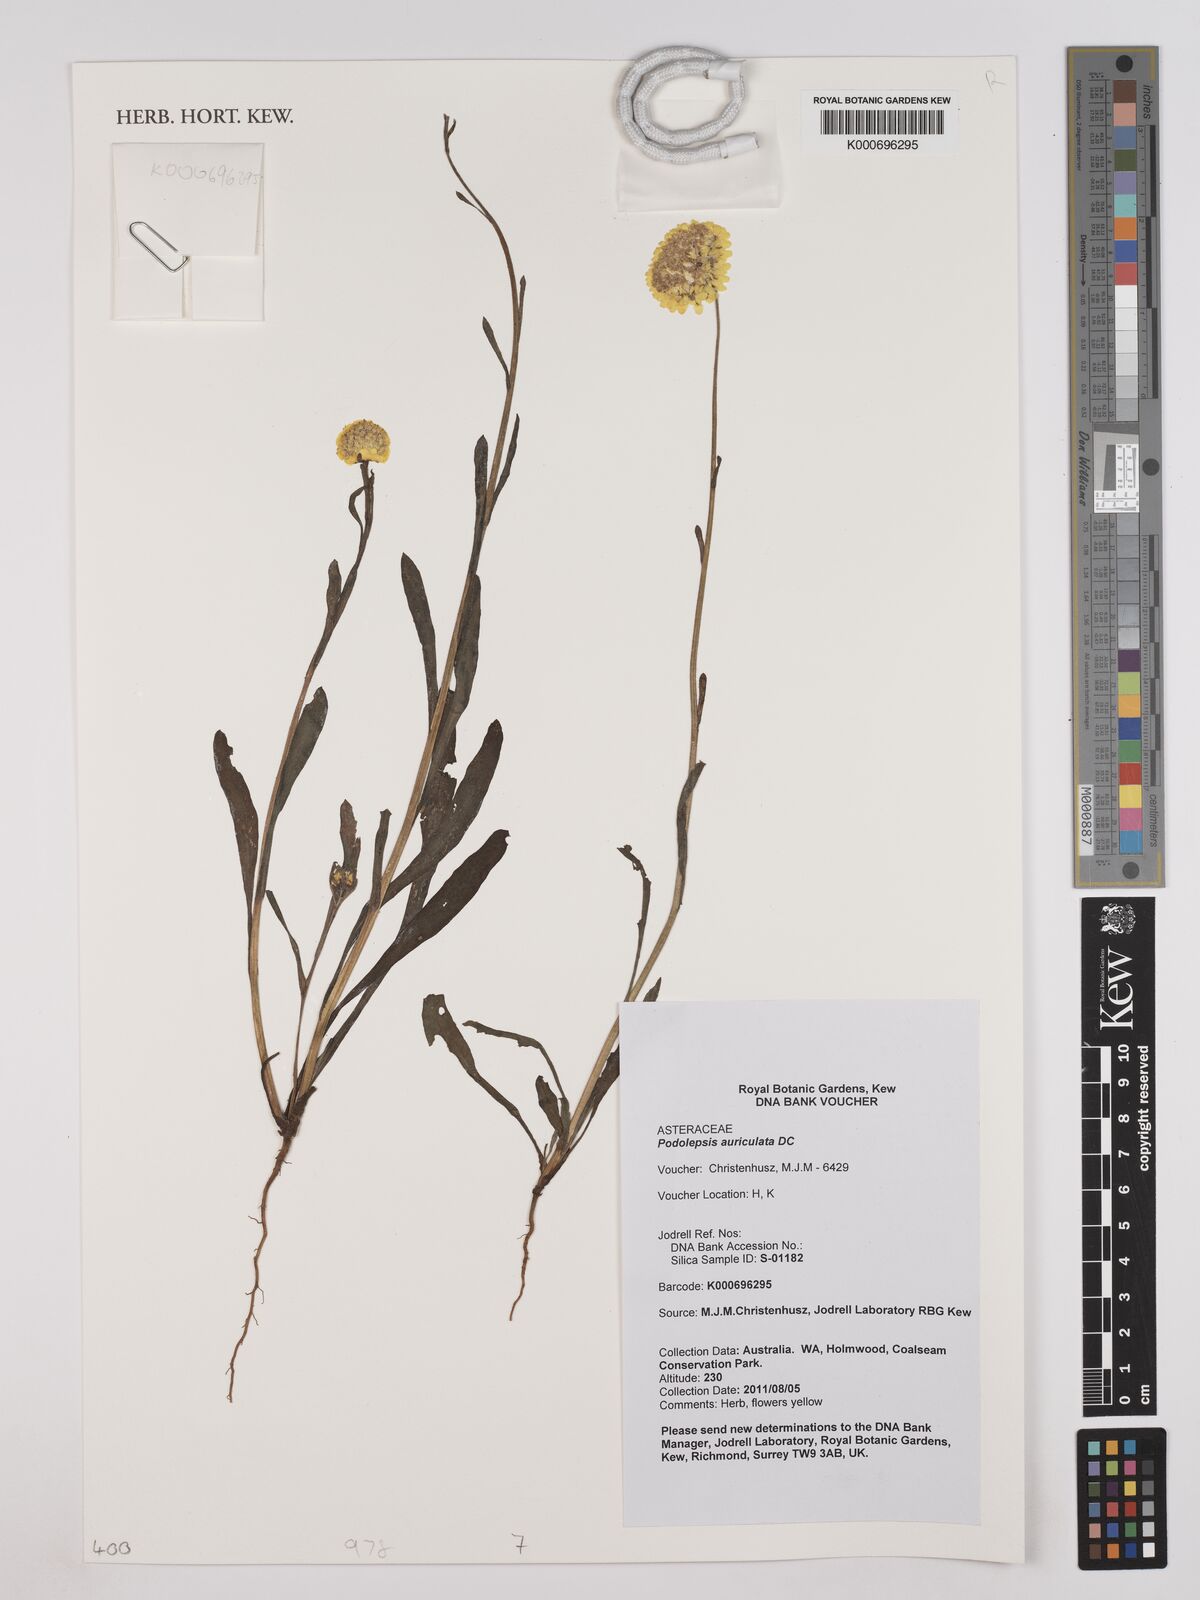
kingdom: Plantae
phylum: Tracheophyta
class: Magnoliopsida
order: Asterales
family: Asteraceae
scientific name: Asteraceae
